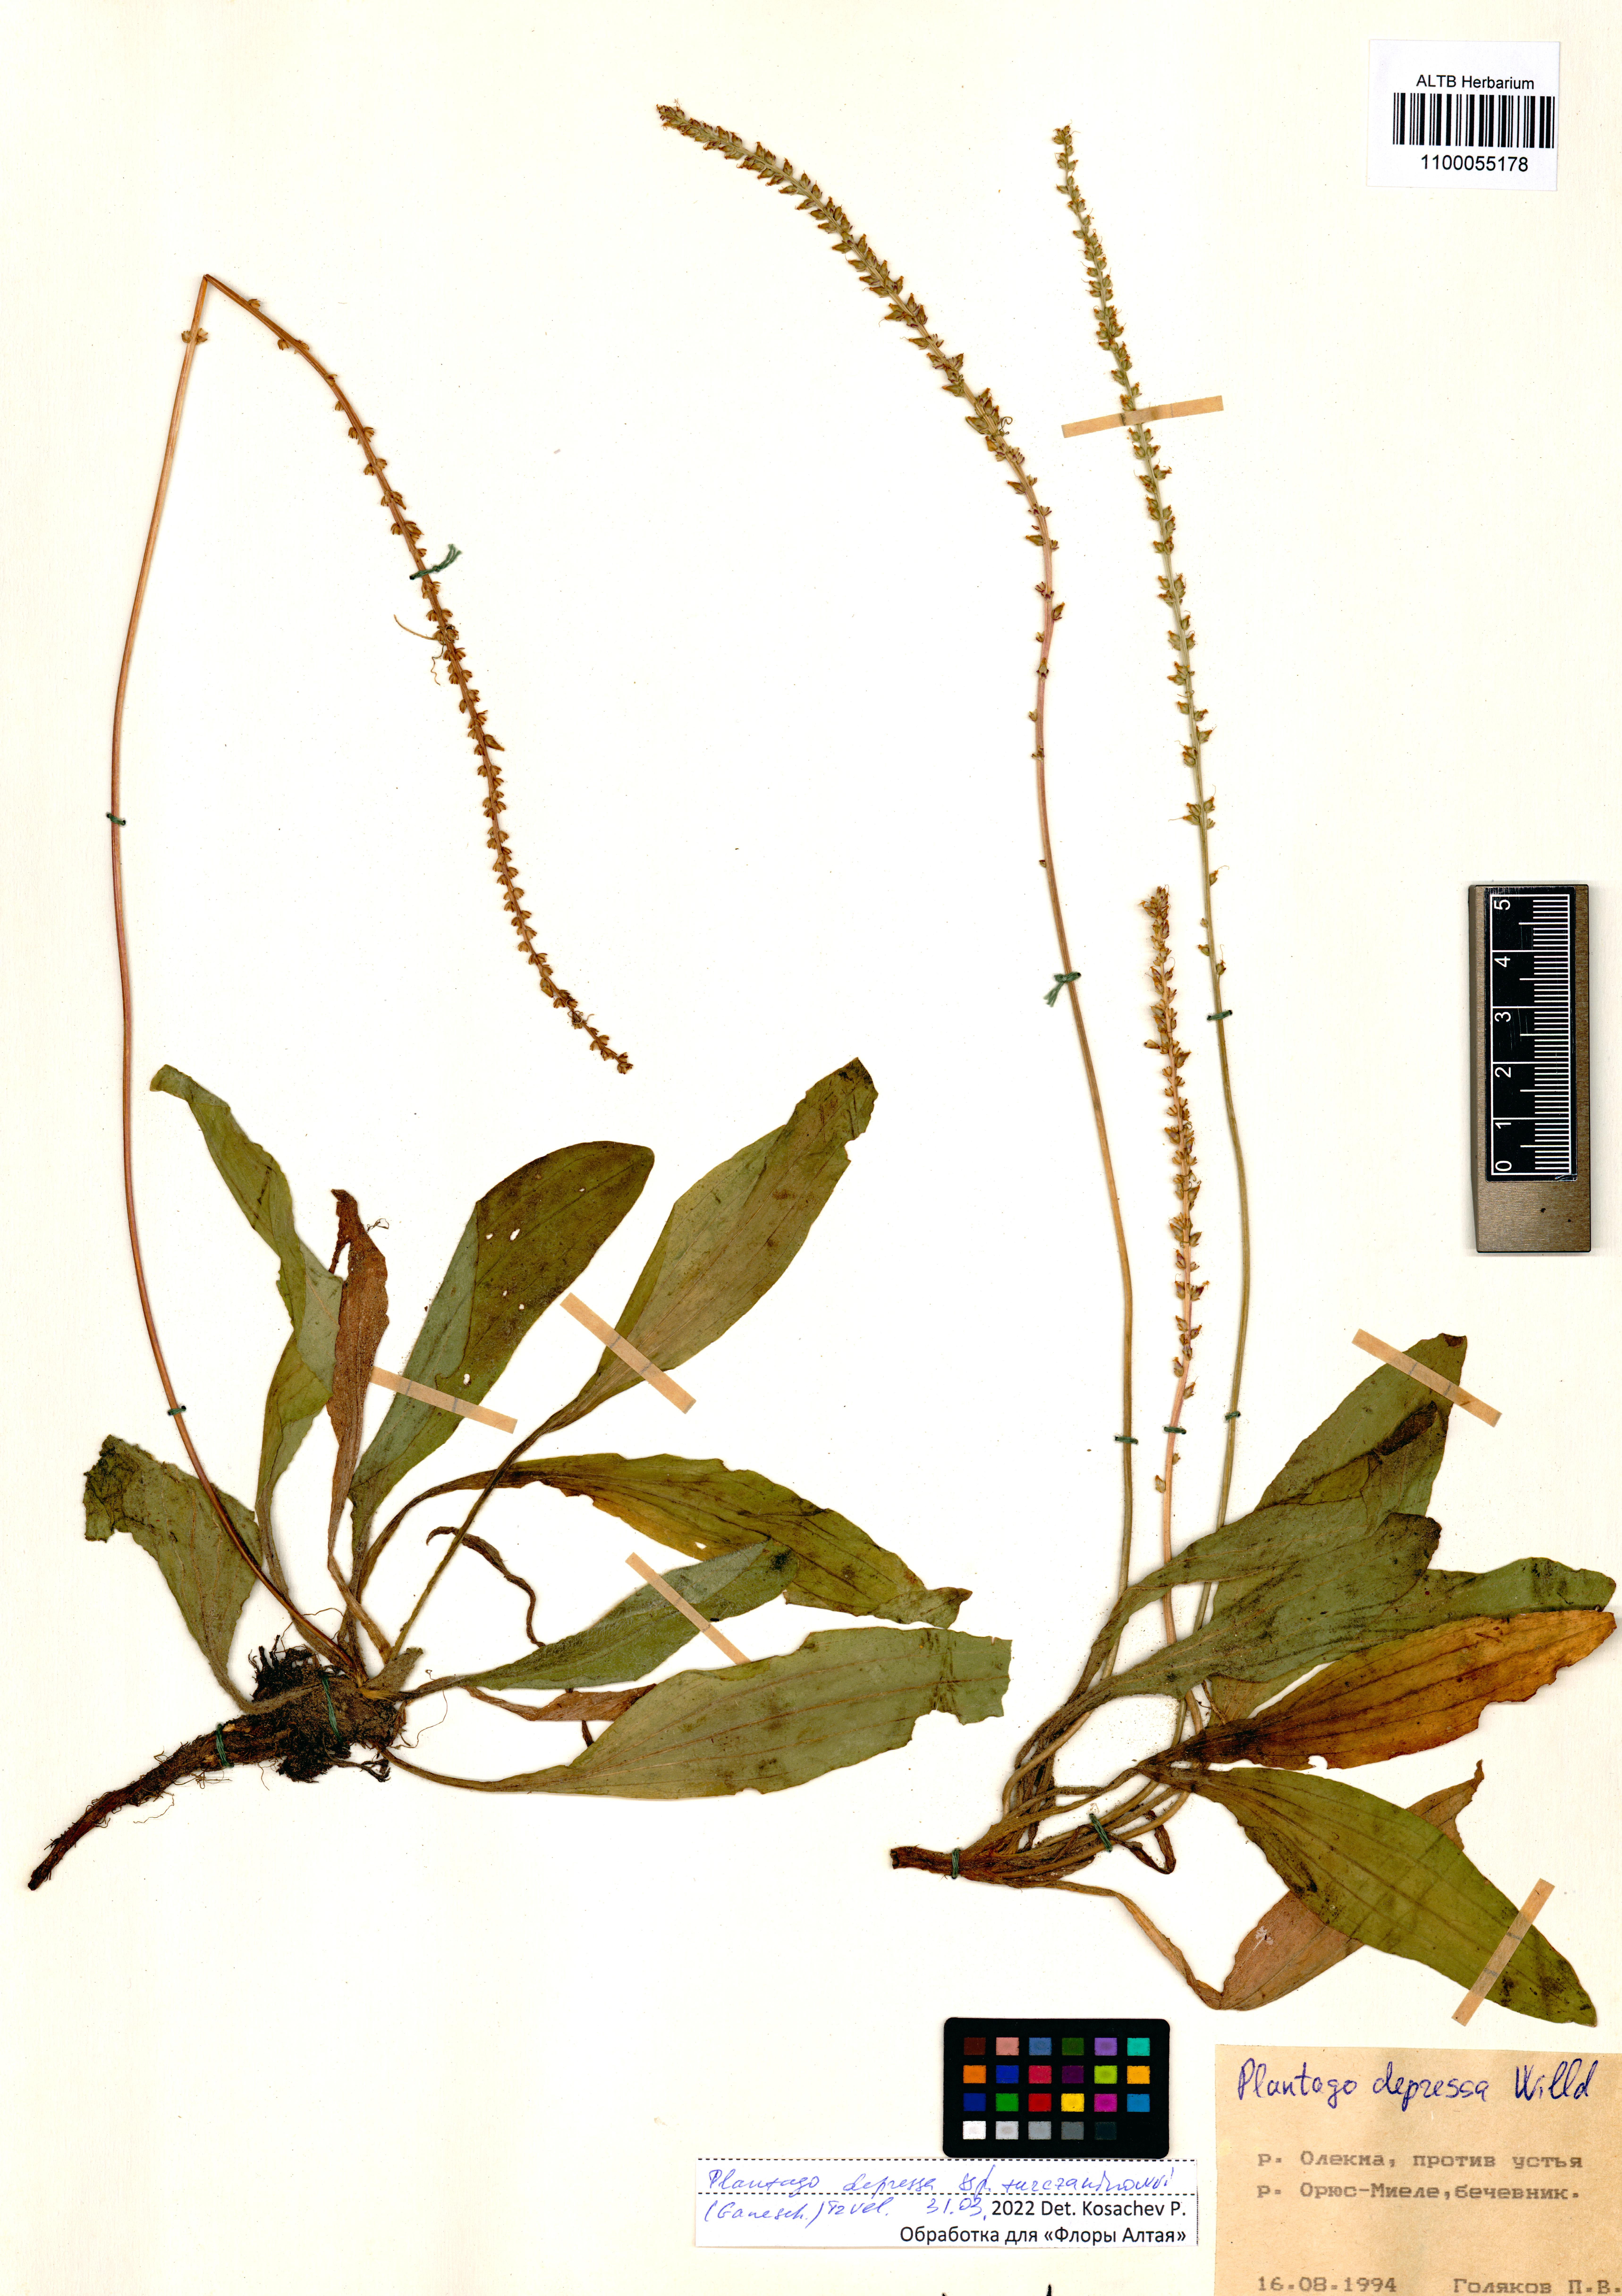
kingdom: Plantae
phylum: Tracheophyta
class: Magnoliopsida
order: Lamiales
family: Plantaginaceae
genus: Plantago
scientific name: Plantago depressa
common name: Depressed plantain
